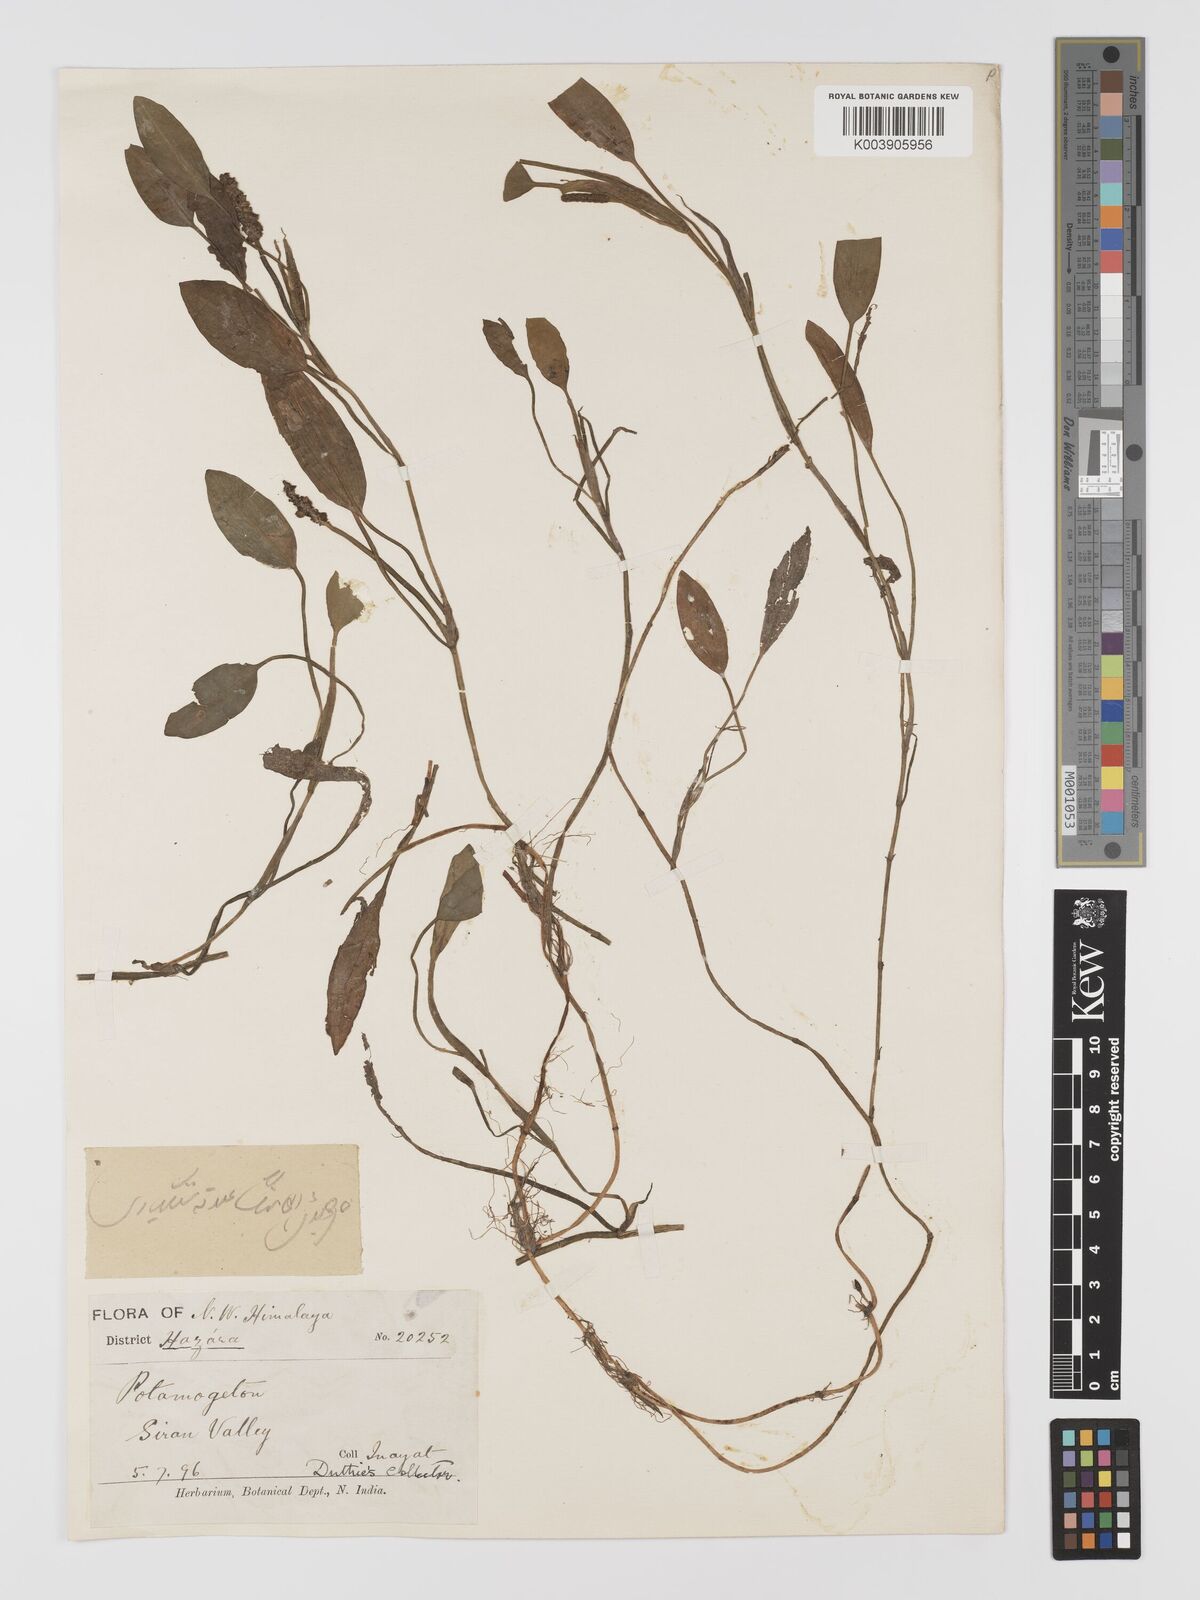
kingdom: Plantae
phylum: Tracheophyta
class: Liliopsida
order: Alismatales
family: Potamogetonaceae
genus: Potamogeton
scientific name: Potamogeton distinctus
